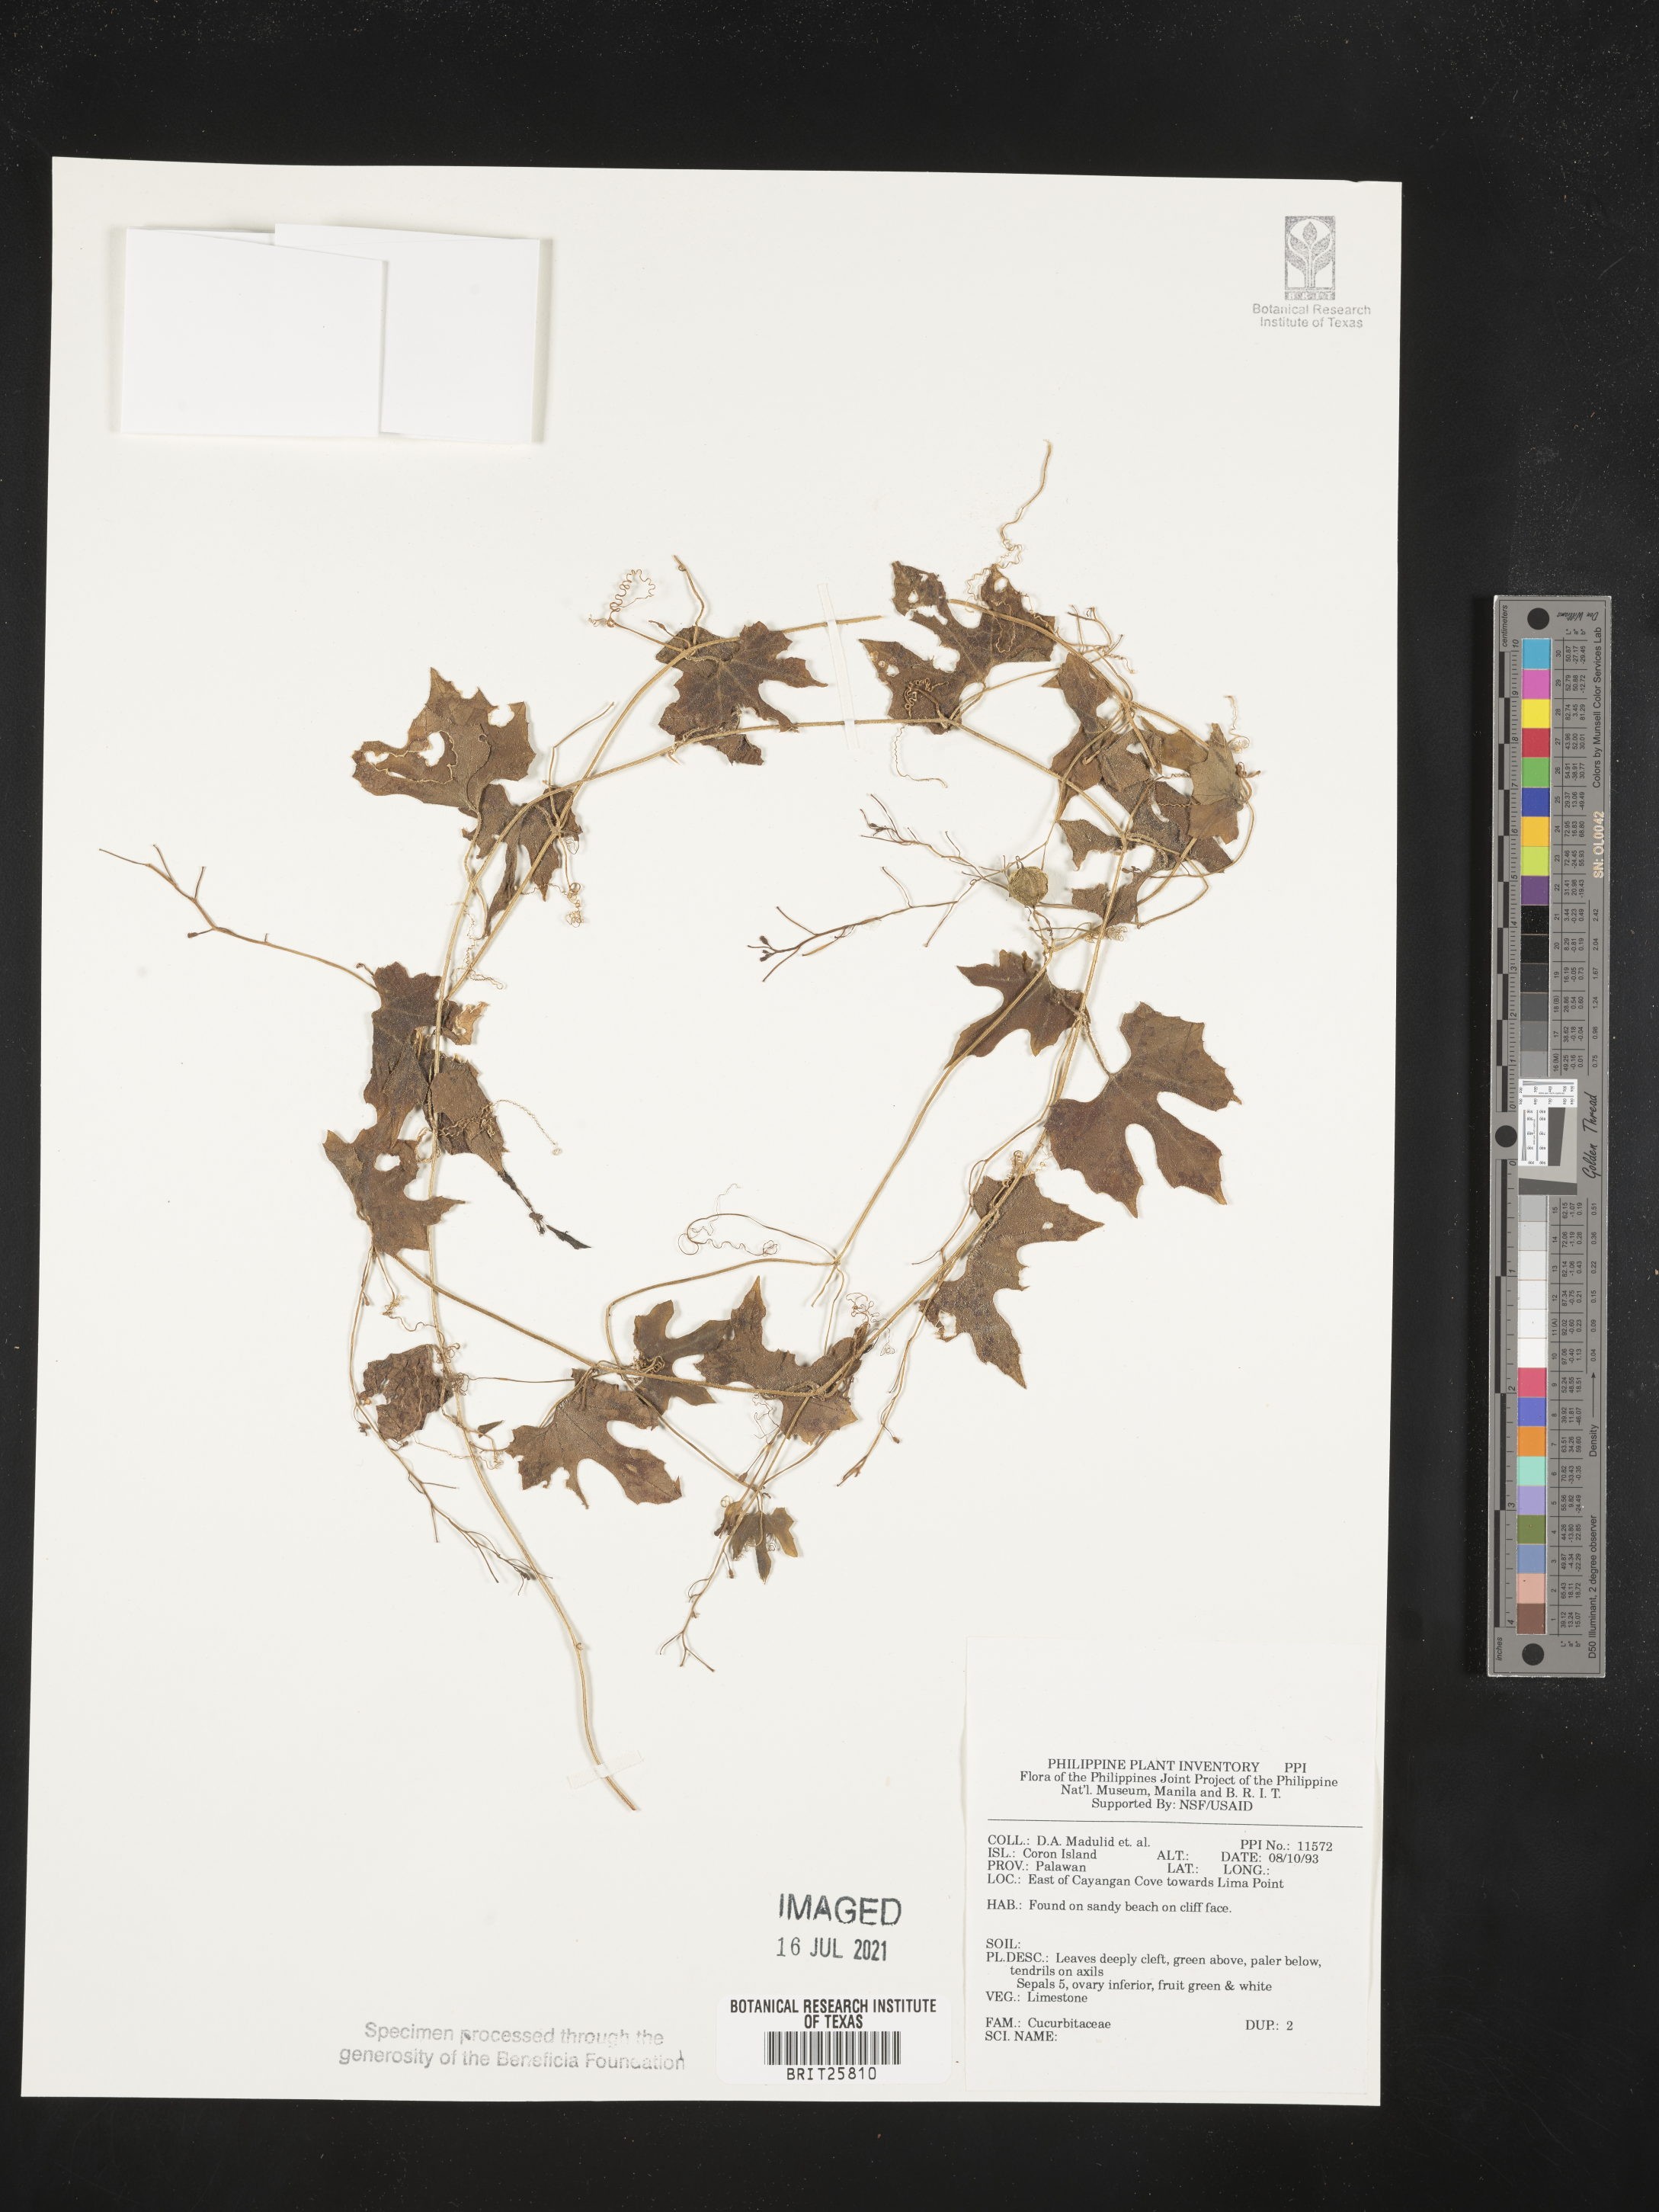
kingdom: Plantae
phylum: Tracheophyta
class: Magnoliopsida
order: Cucurbitales
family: Cucurbitaceae
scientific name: Cucurbitaceae
